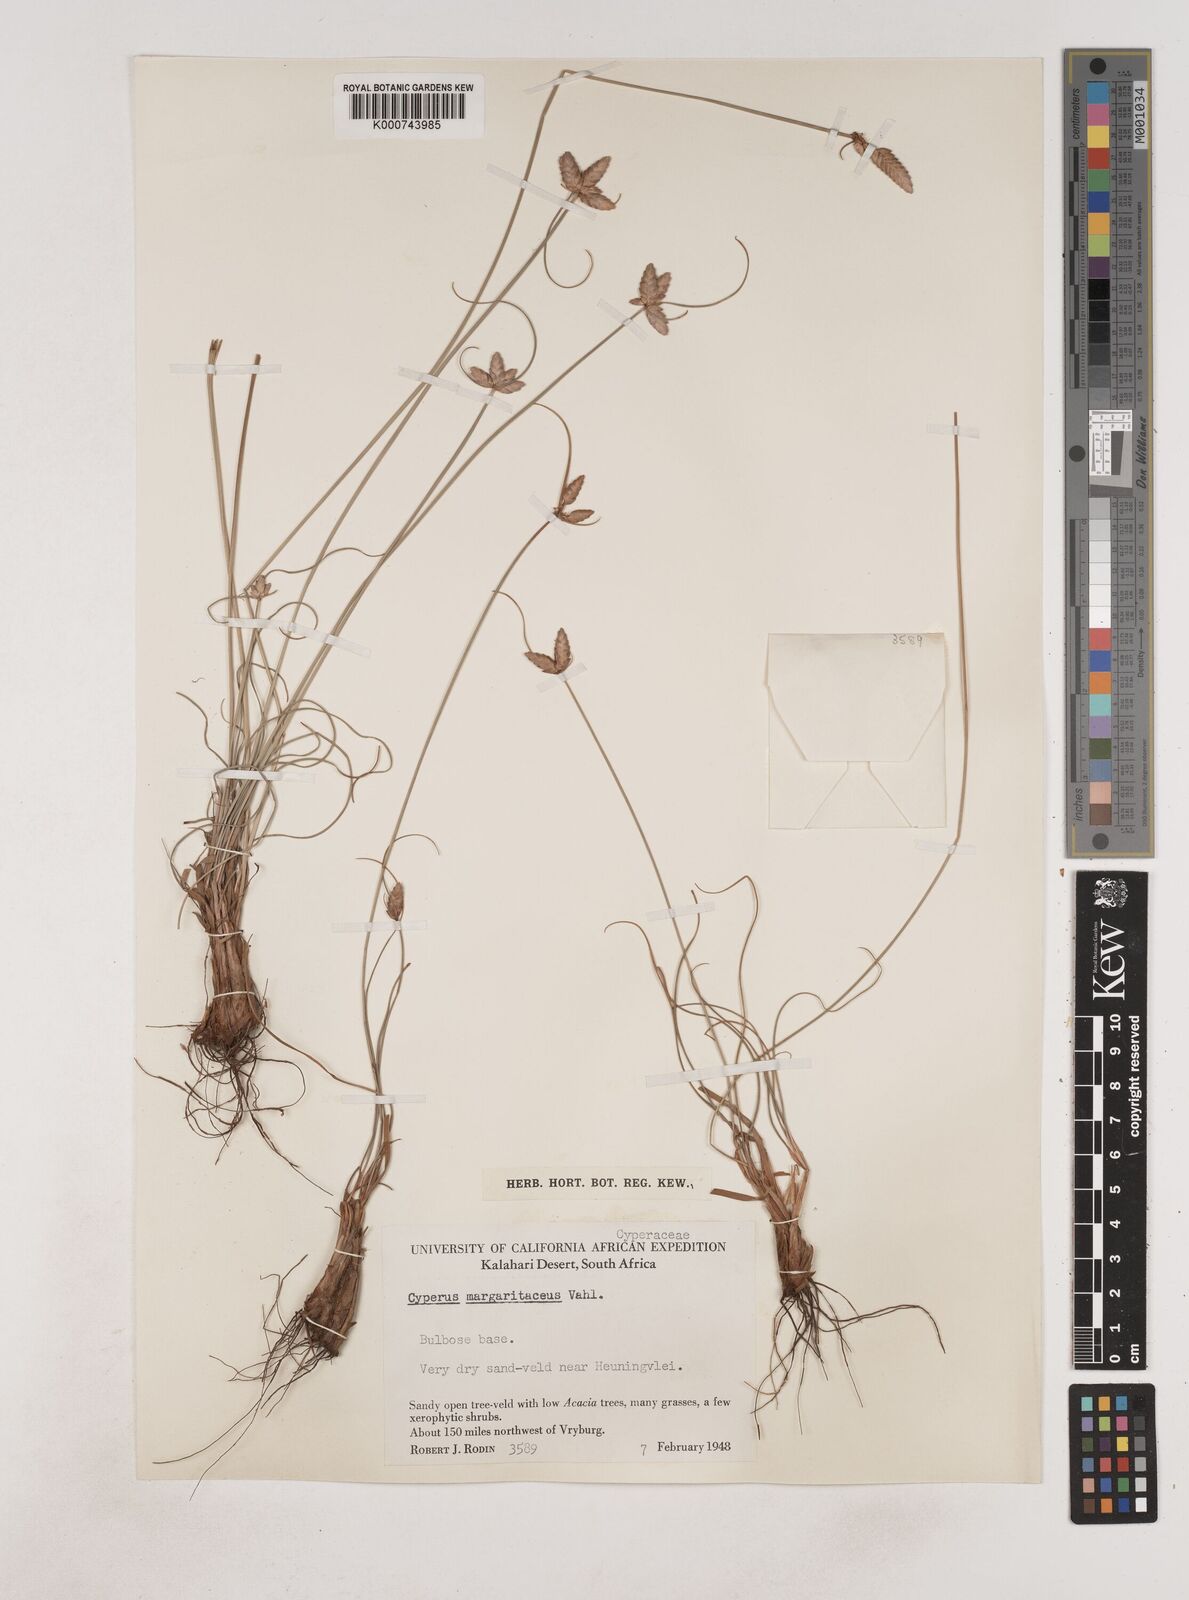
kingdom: Plantae
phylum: Tracheophyta
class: Liliopsida
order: Poales
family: Cyperaceae
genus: Cyperus
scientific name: Cyperus margaritaceus
